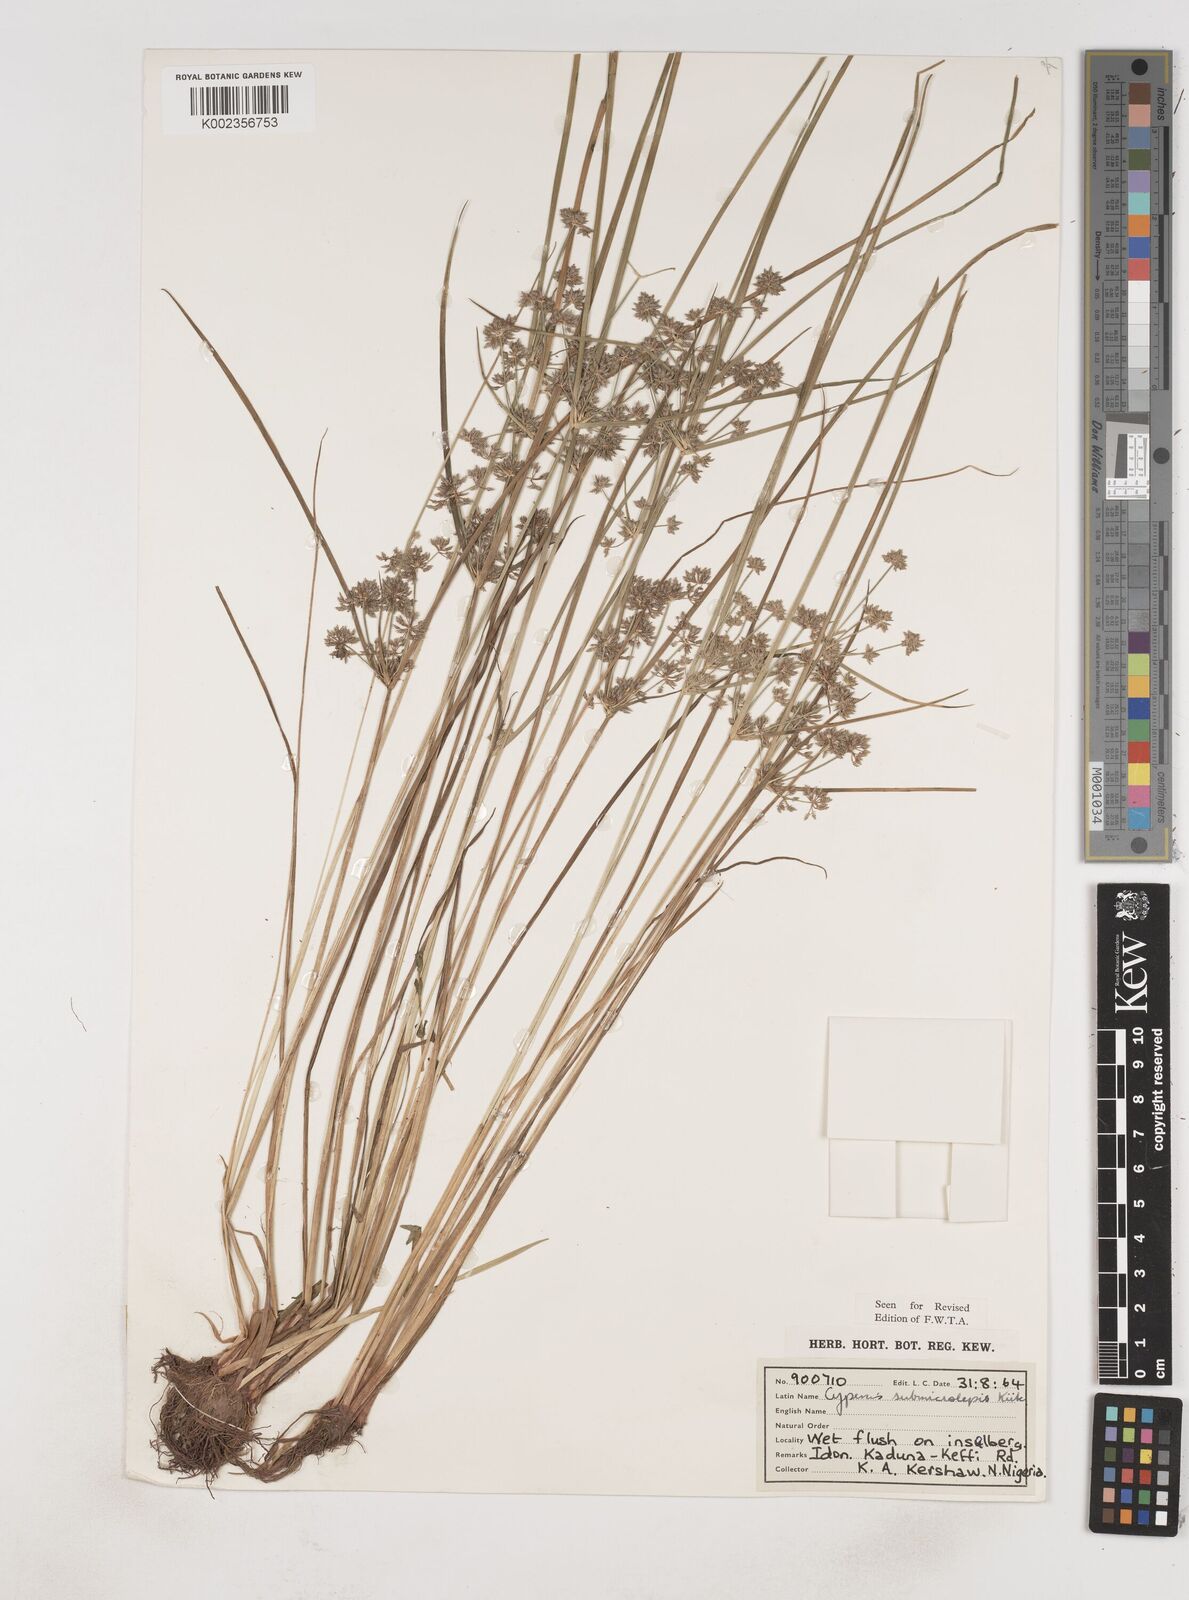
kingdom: Plantae
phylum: Tracheophyta
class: Liliopsida
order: Poales
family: Cyperaceae
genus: Cyperus
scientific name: Cyperus submicrolepis
